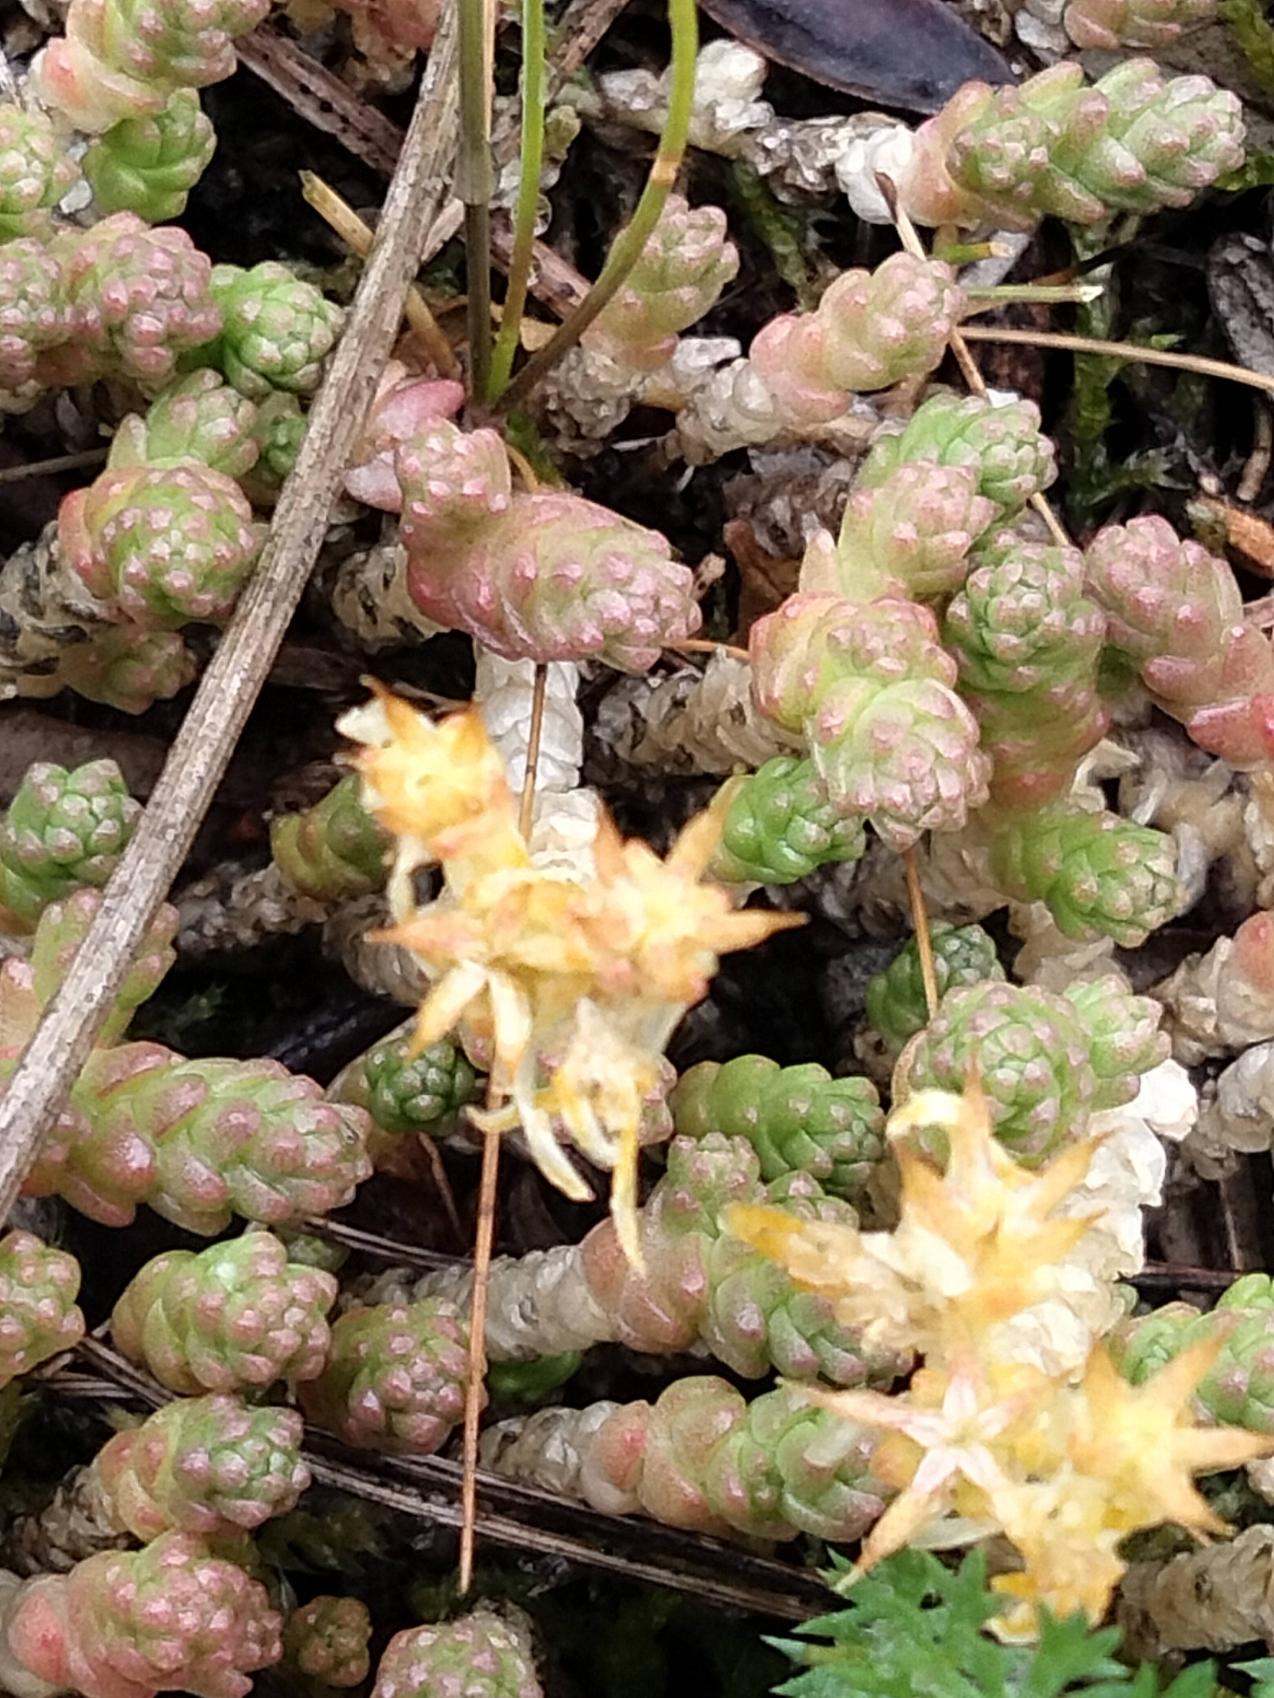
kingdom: Plantae
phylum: Tracheophyta
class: Magnoliopsida
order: Saxifragales
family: Crassulaceae
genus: Sedum
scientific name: Sedum acre
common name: Bidende stenurt
